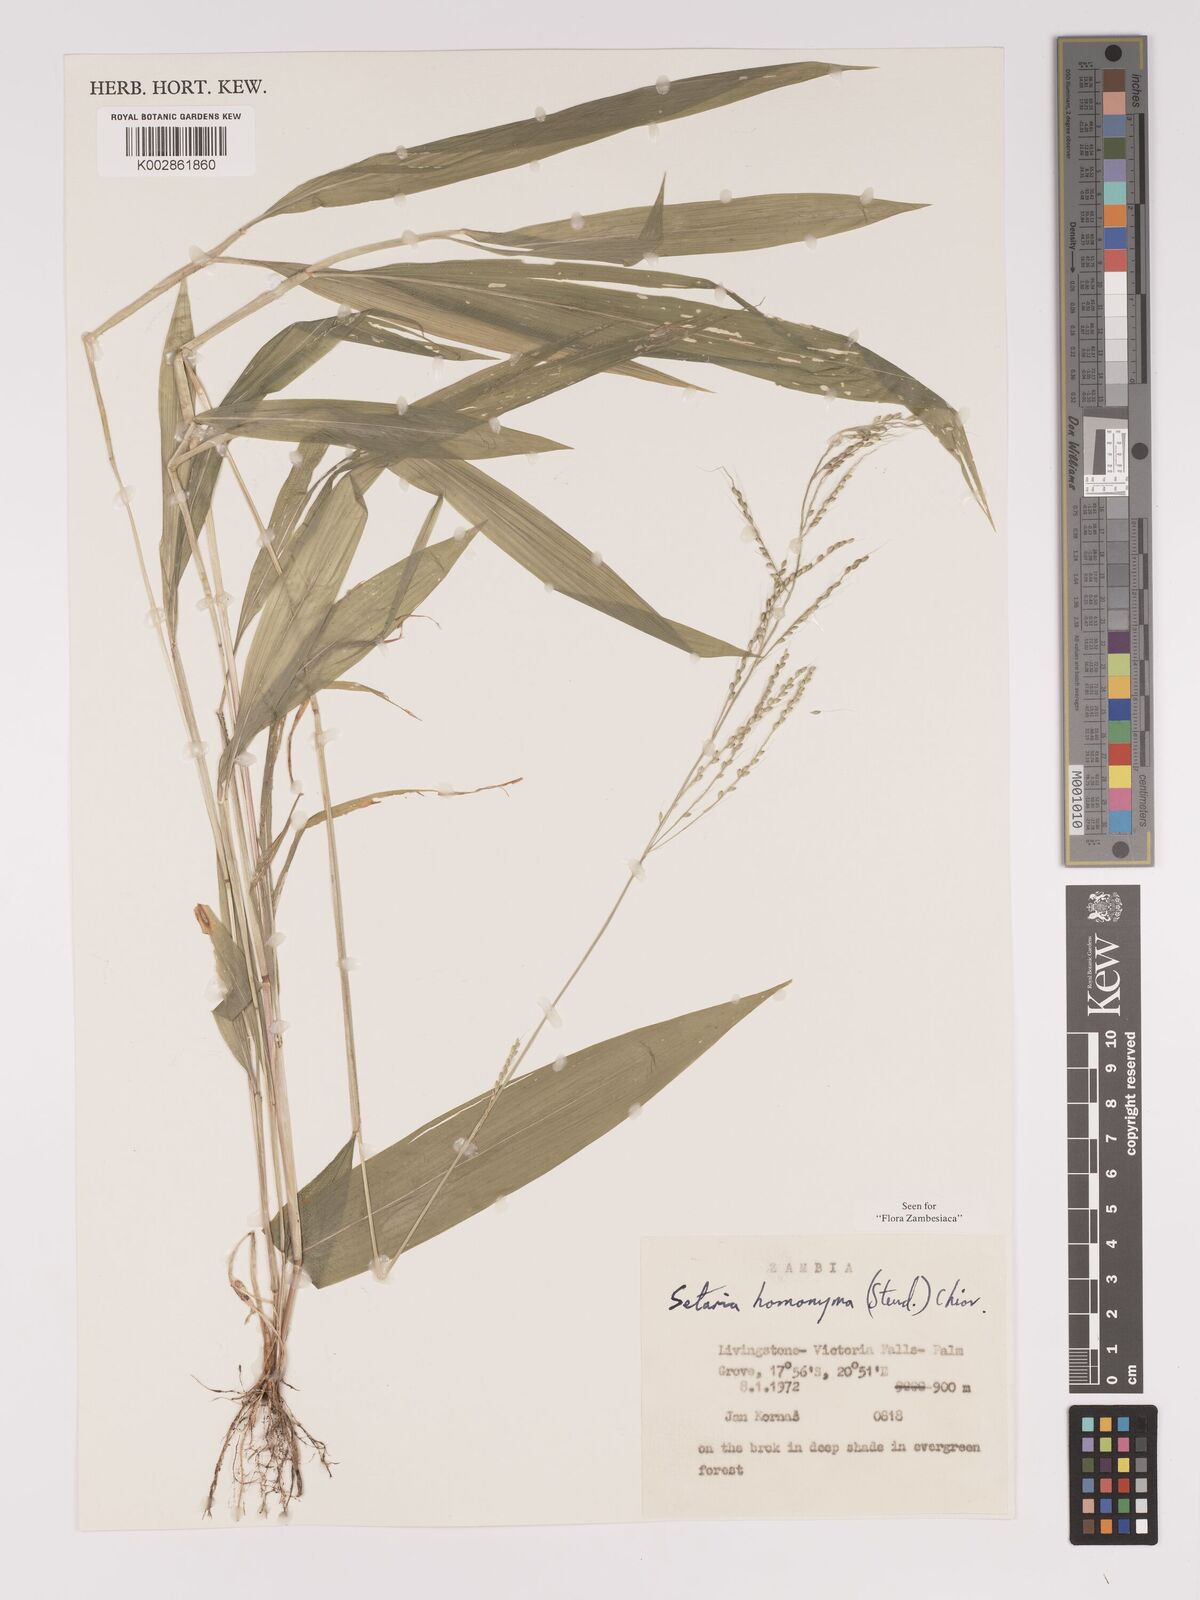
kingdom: Plantae
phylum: Tracheophyta
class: Liliopsida
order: Poales
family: Poaceae
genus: Setaria
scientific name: Setaria homonyma
